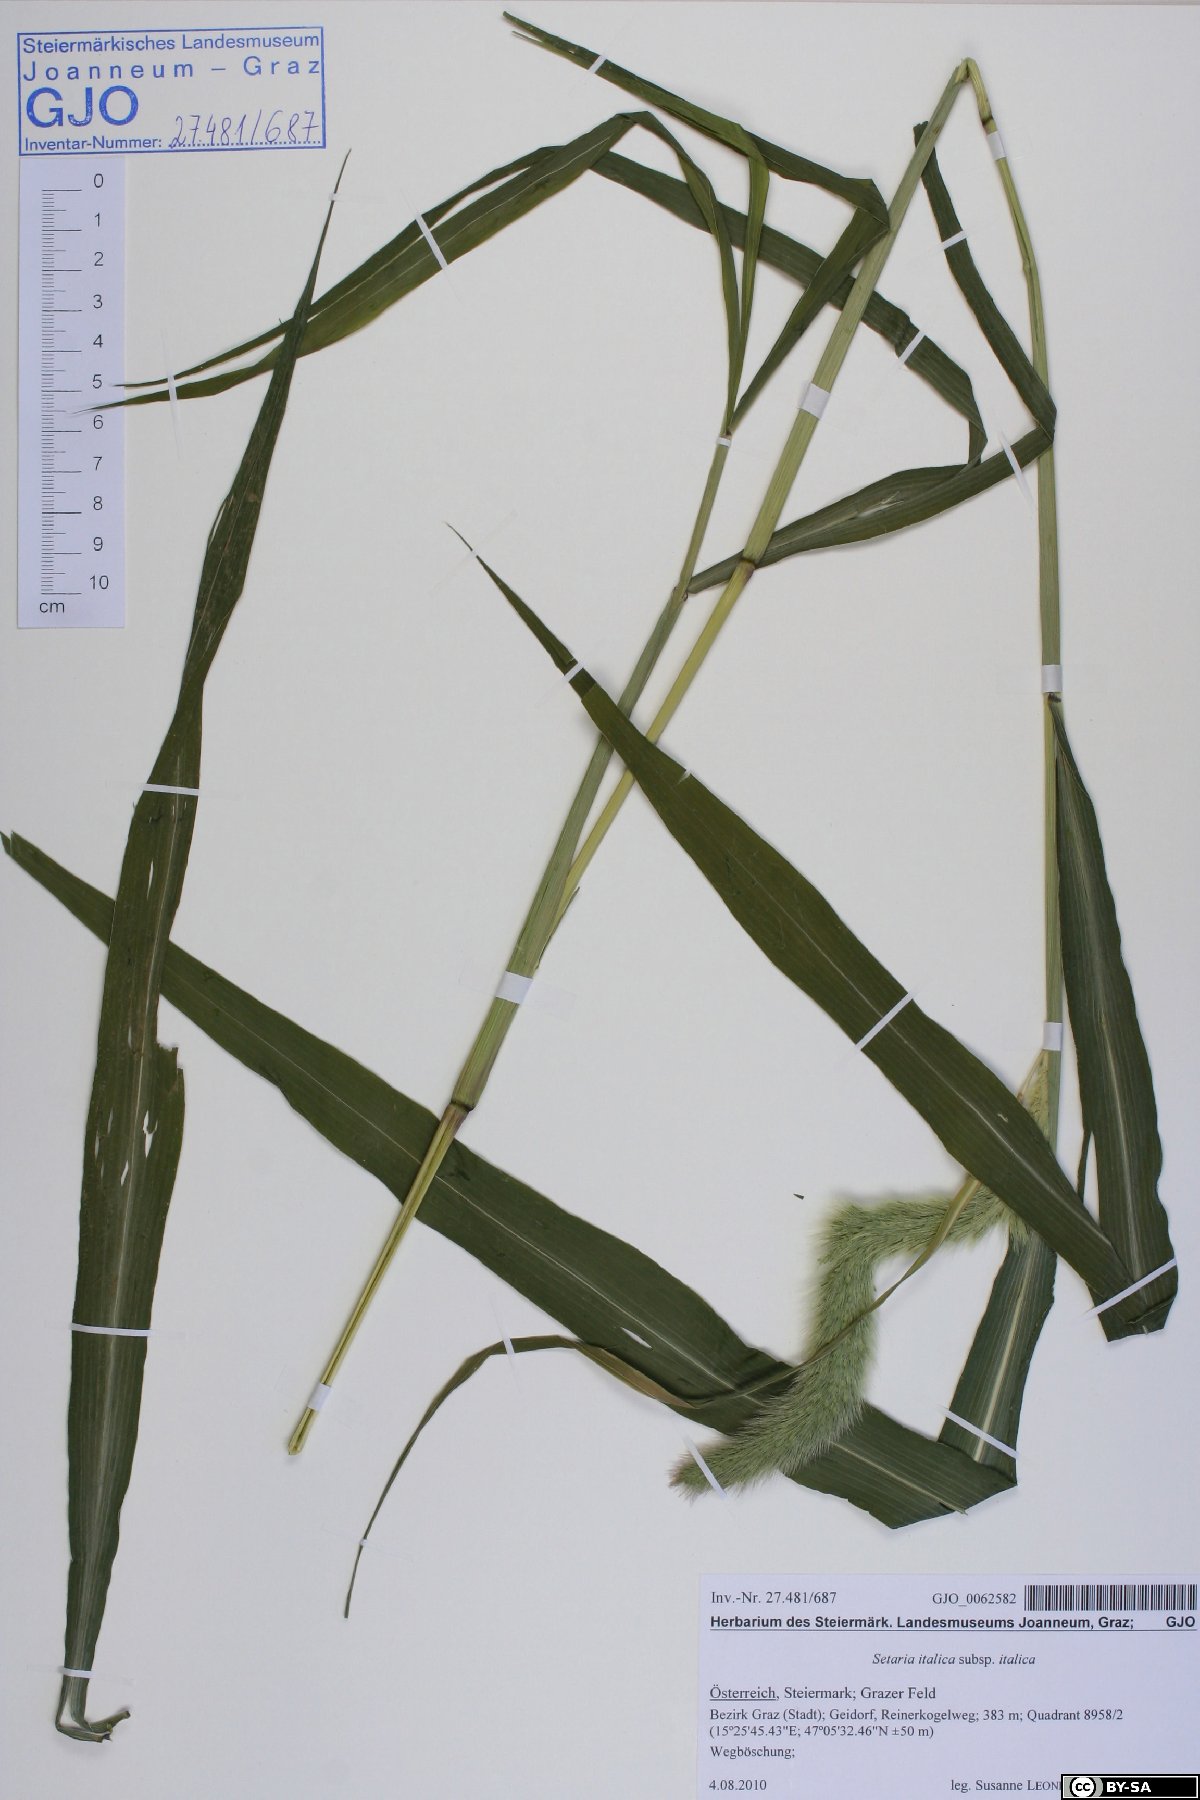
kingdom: Plantae
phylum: Tracheophyta
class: Liliopsida
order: Poales
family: Poaceae
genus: Setaria
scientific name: Setaria italica
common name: Foxtail bristle-grass
